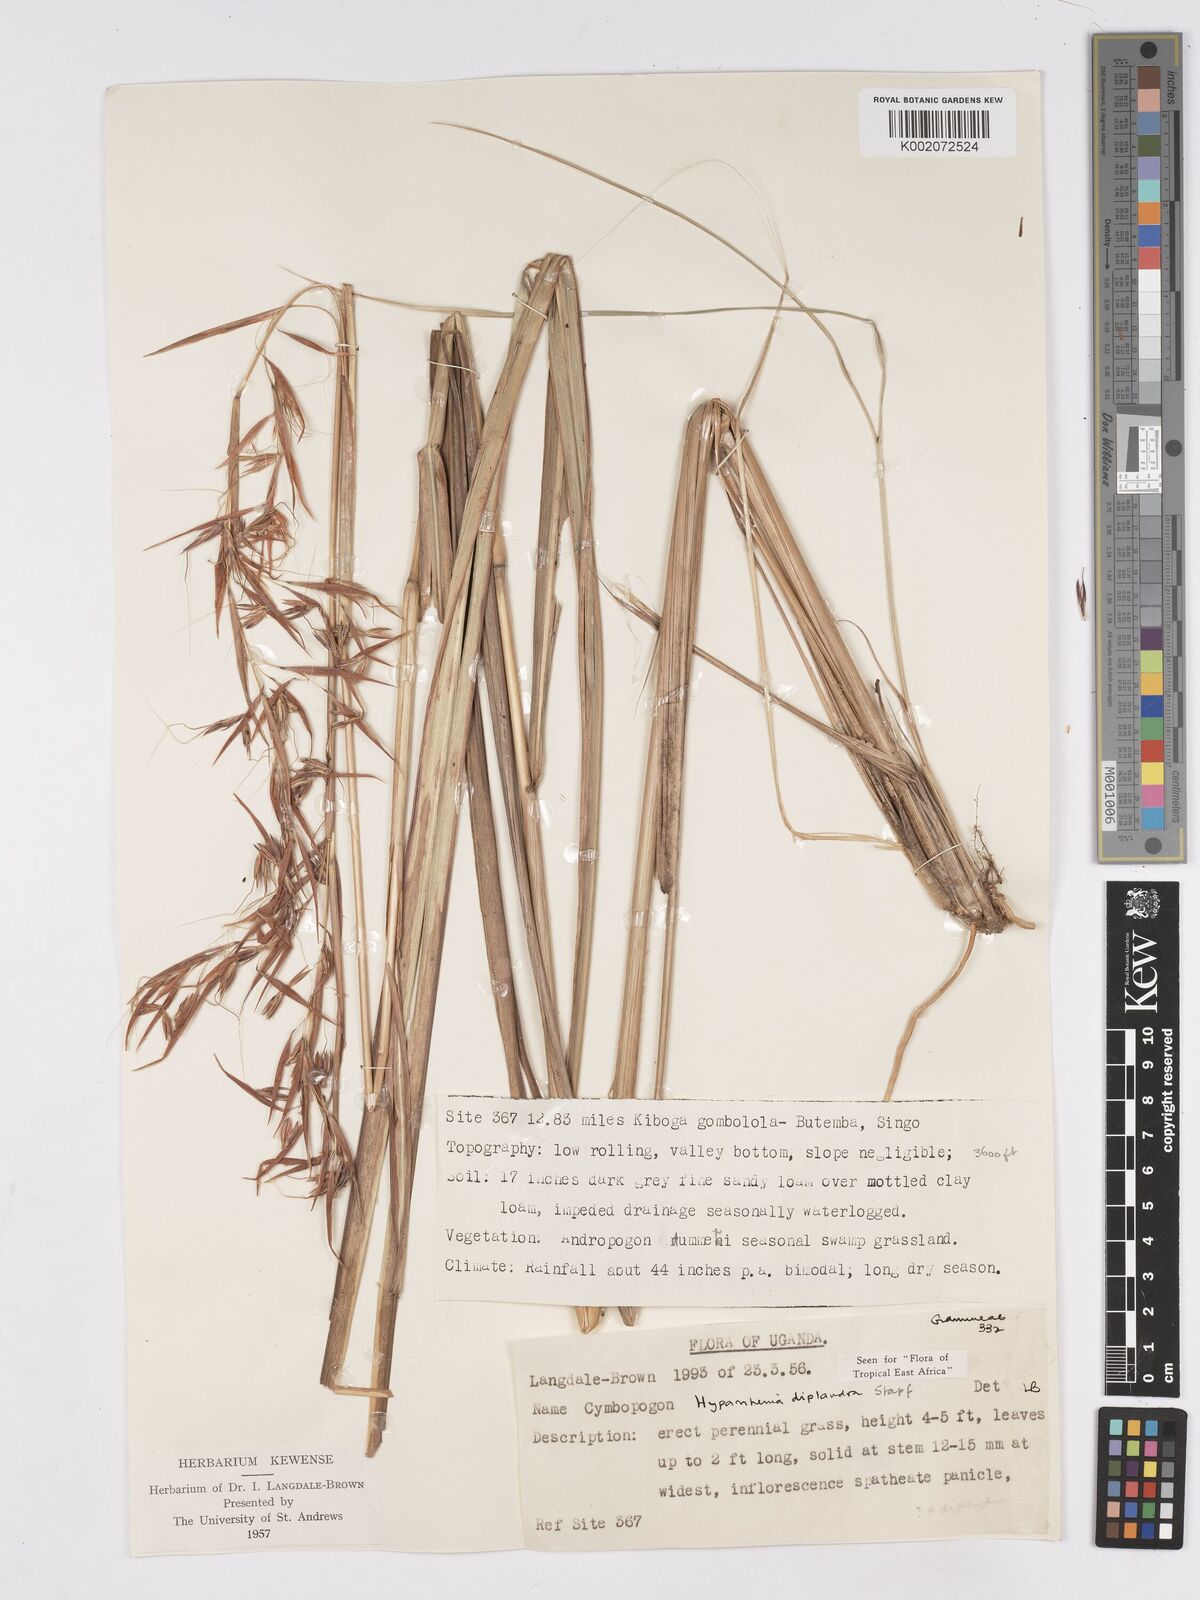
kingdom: Plantae
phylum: Tracheophyta
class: Liliopsida
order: Poales
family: Poaceae
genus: Hyparrhenia
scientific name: Hyparrhenia diplandra
